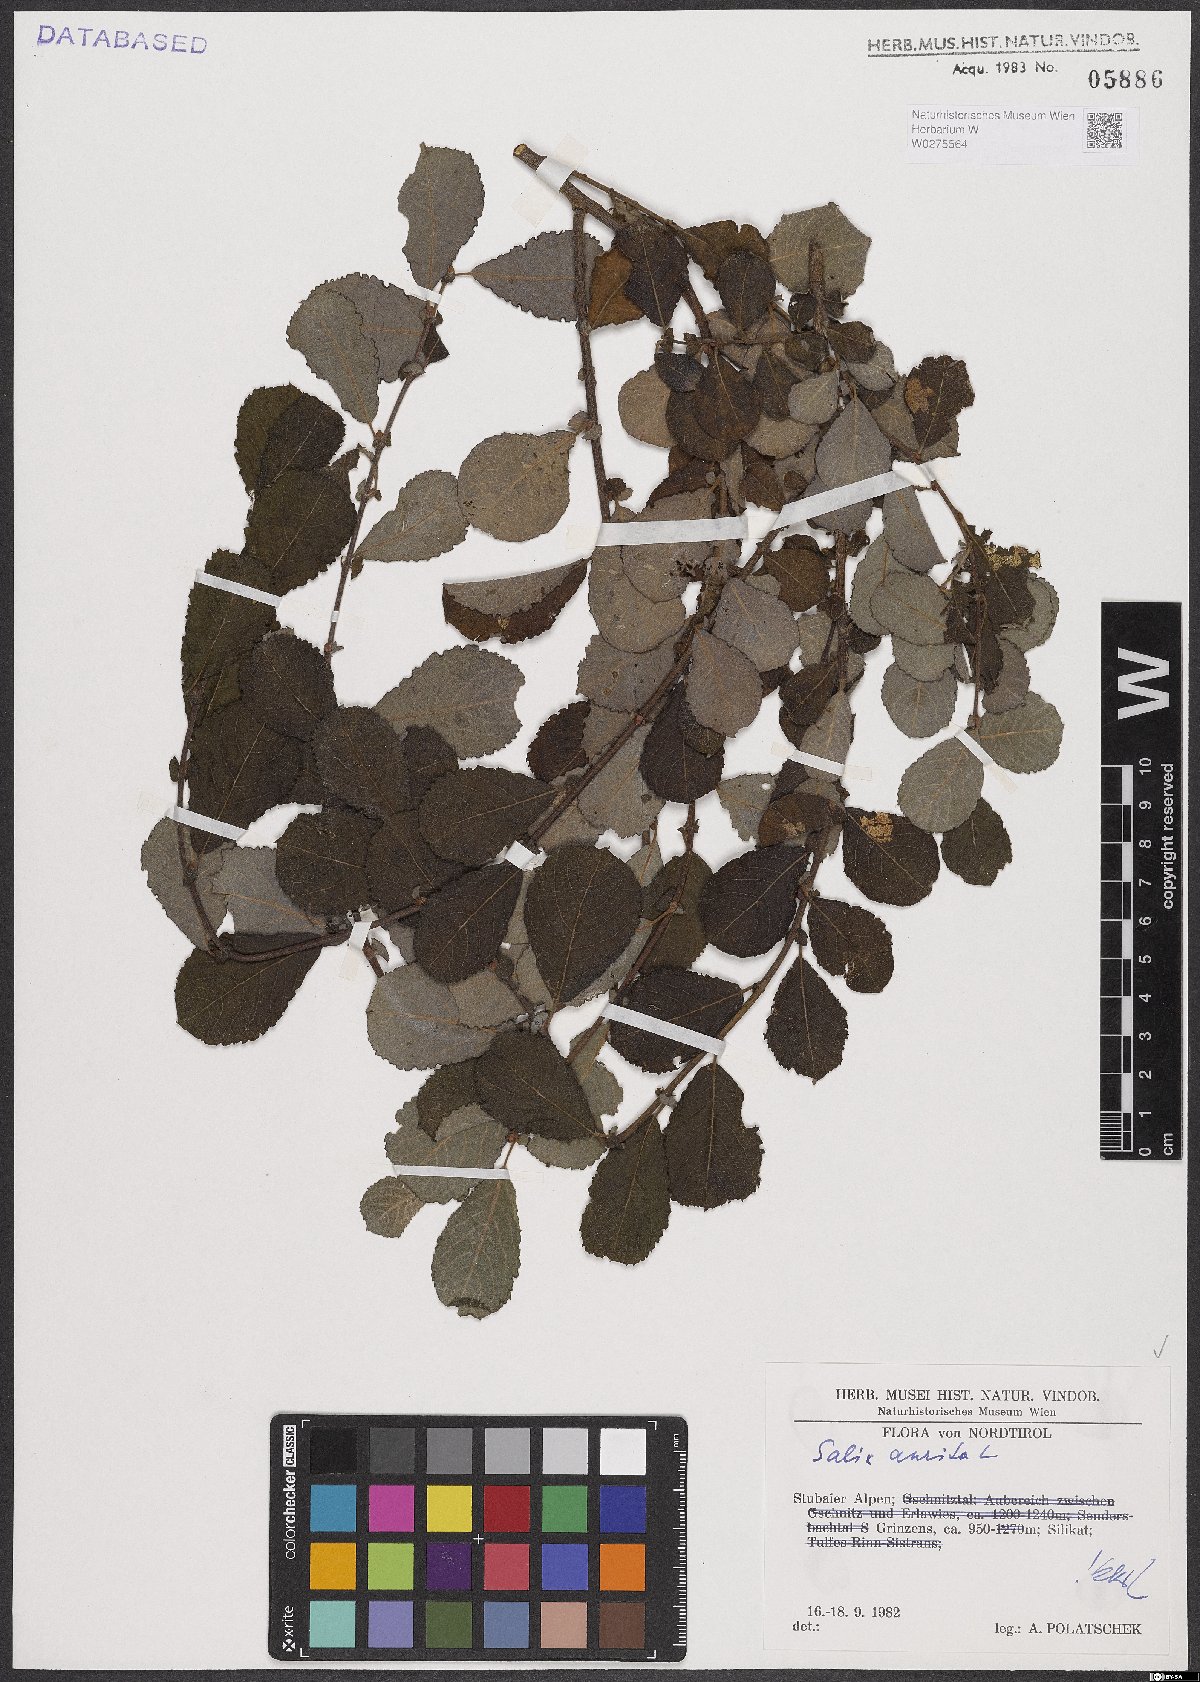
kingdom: Plantae
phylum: Tracheophyta
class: Magnoliopsida
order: Malpighiales
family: Salicaceae
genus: Salix
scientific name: Salix aurita
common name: Eared willow
